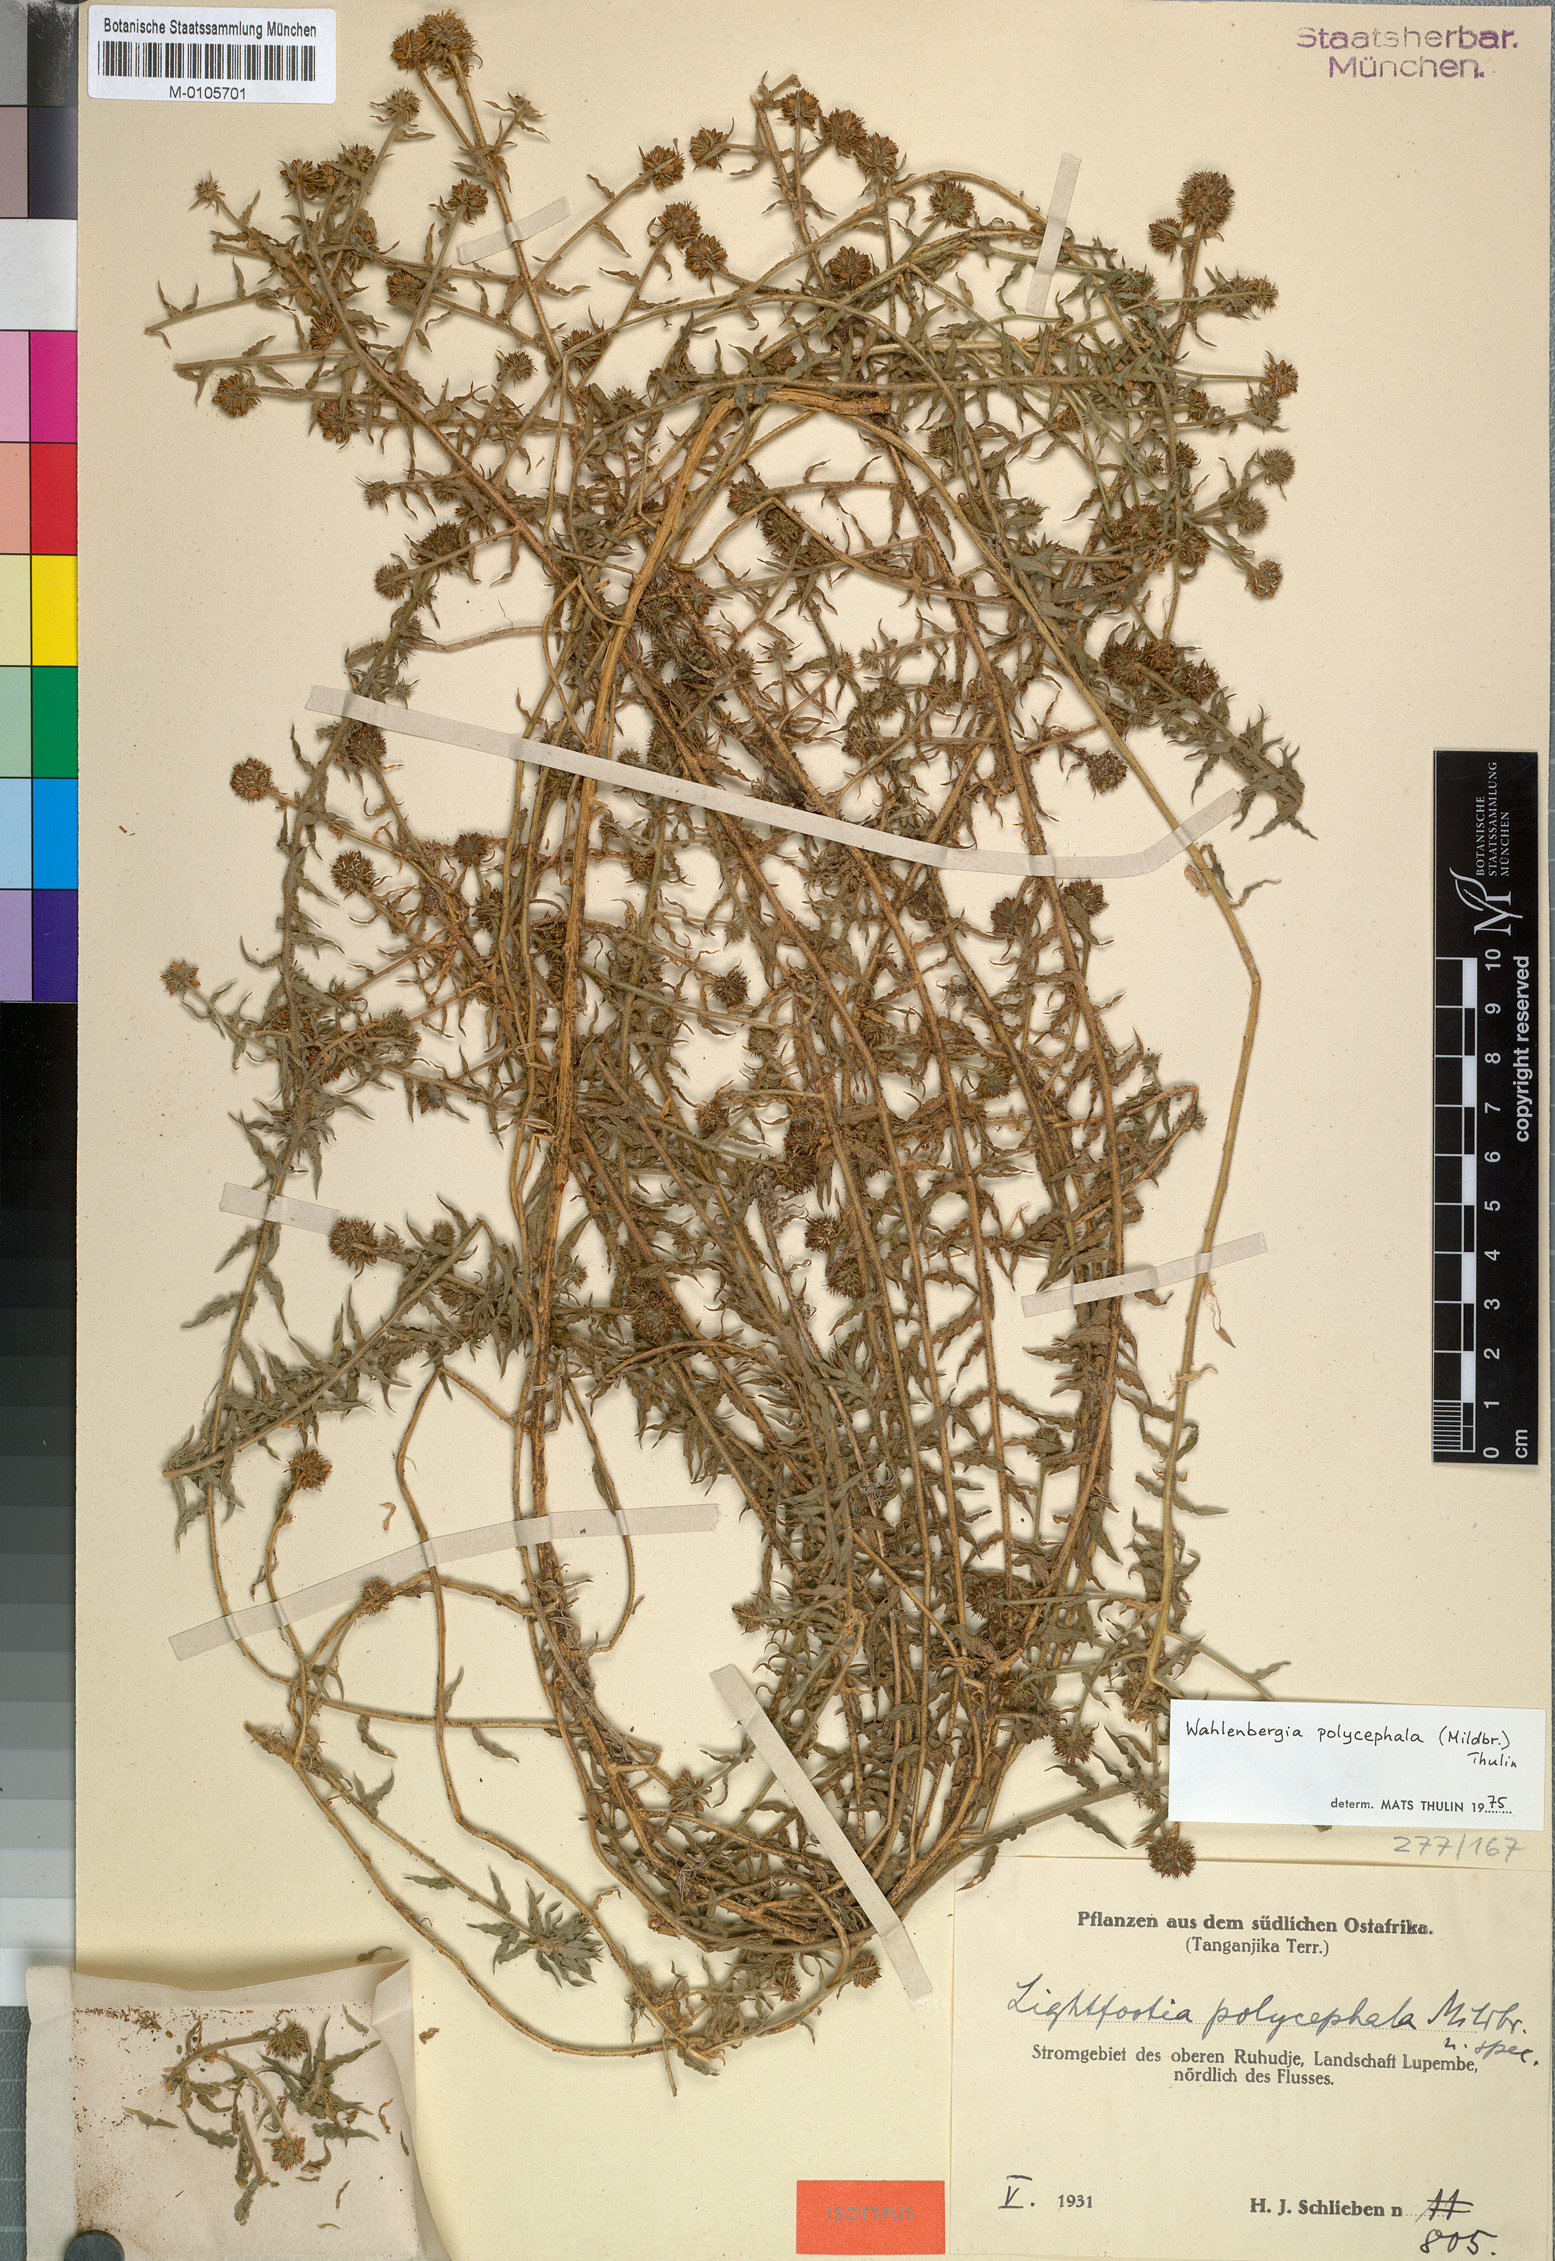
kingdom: Plantae
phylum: Tracheophyta
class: Magnoliopsida
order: Asterales
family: Campanulaceae
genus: Wahlenbergia
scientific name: Wahlenbergia polycephala
